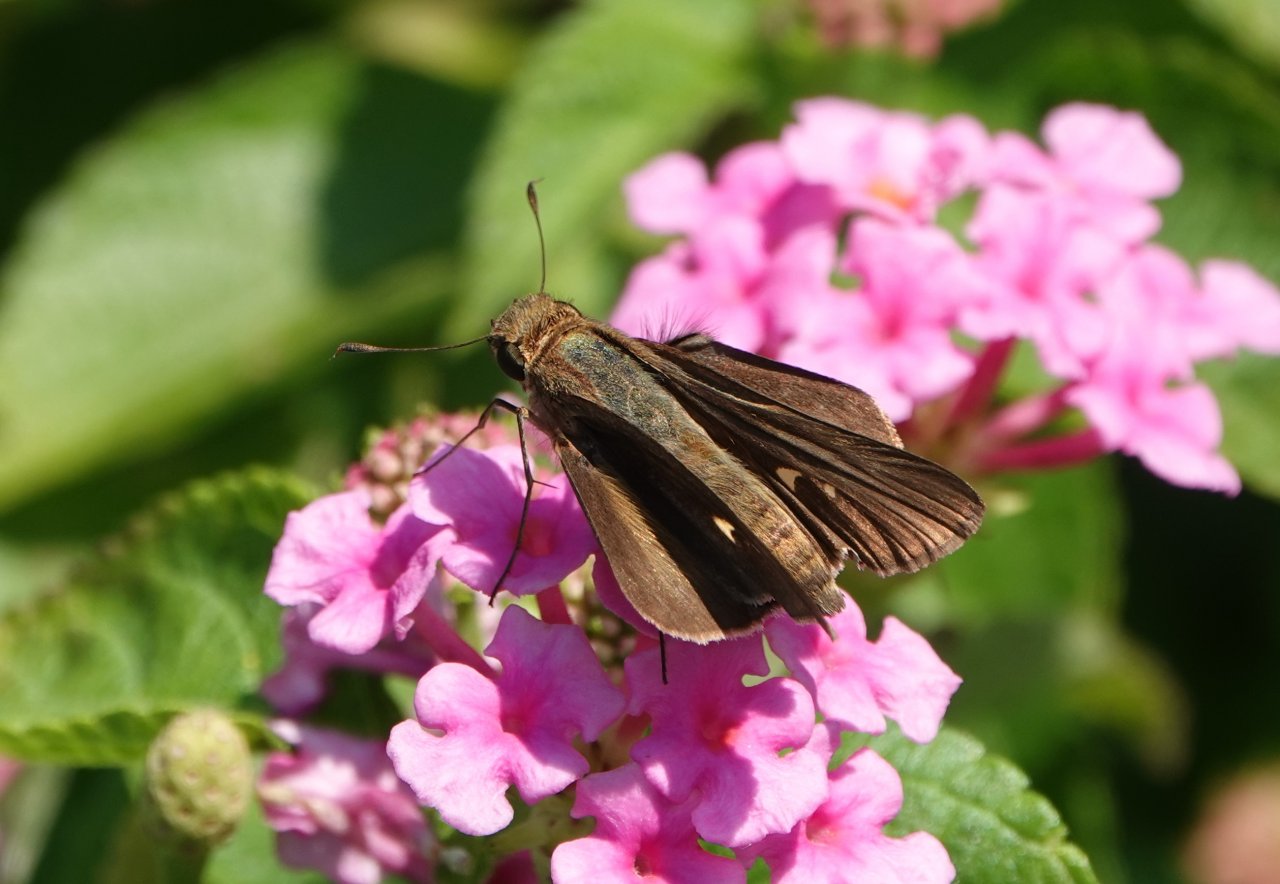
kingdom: Animalia
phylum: Arthropoda
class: Insecta
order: Lepidoptera
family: Hesperiidae
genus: Panoquina
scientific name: Panoquina ocola
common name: Ocola Skipper
